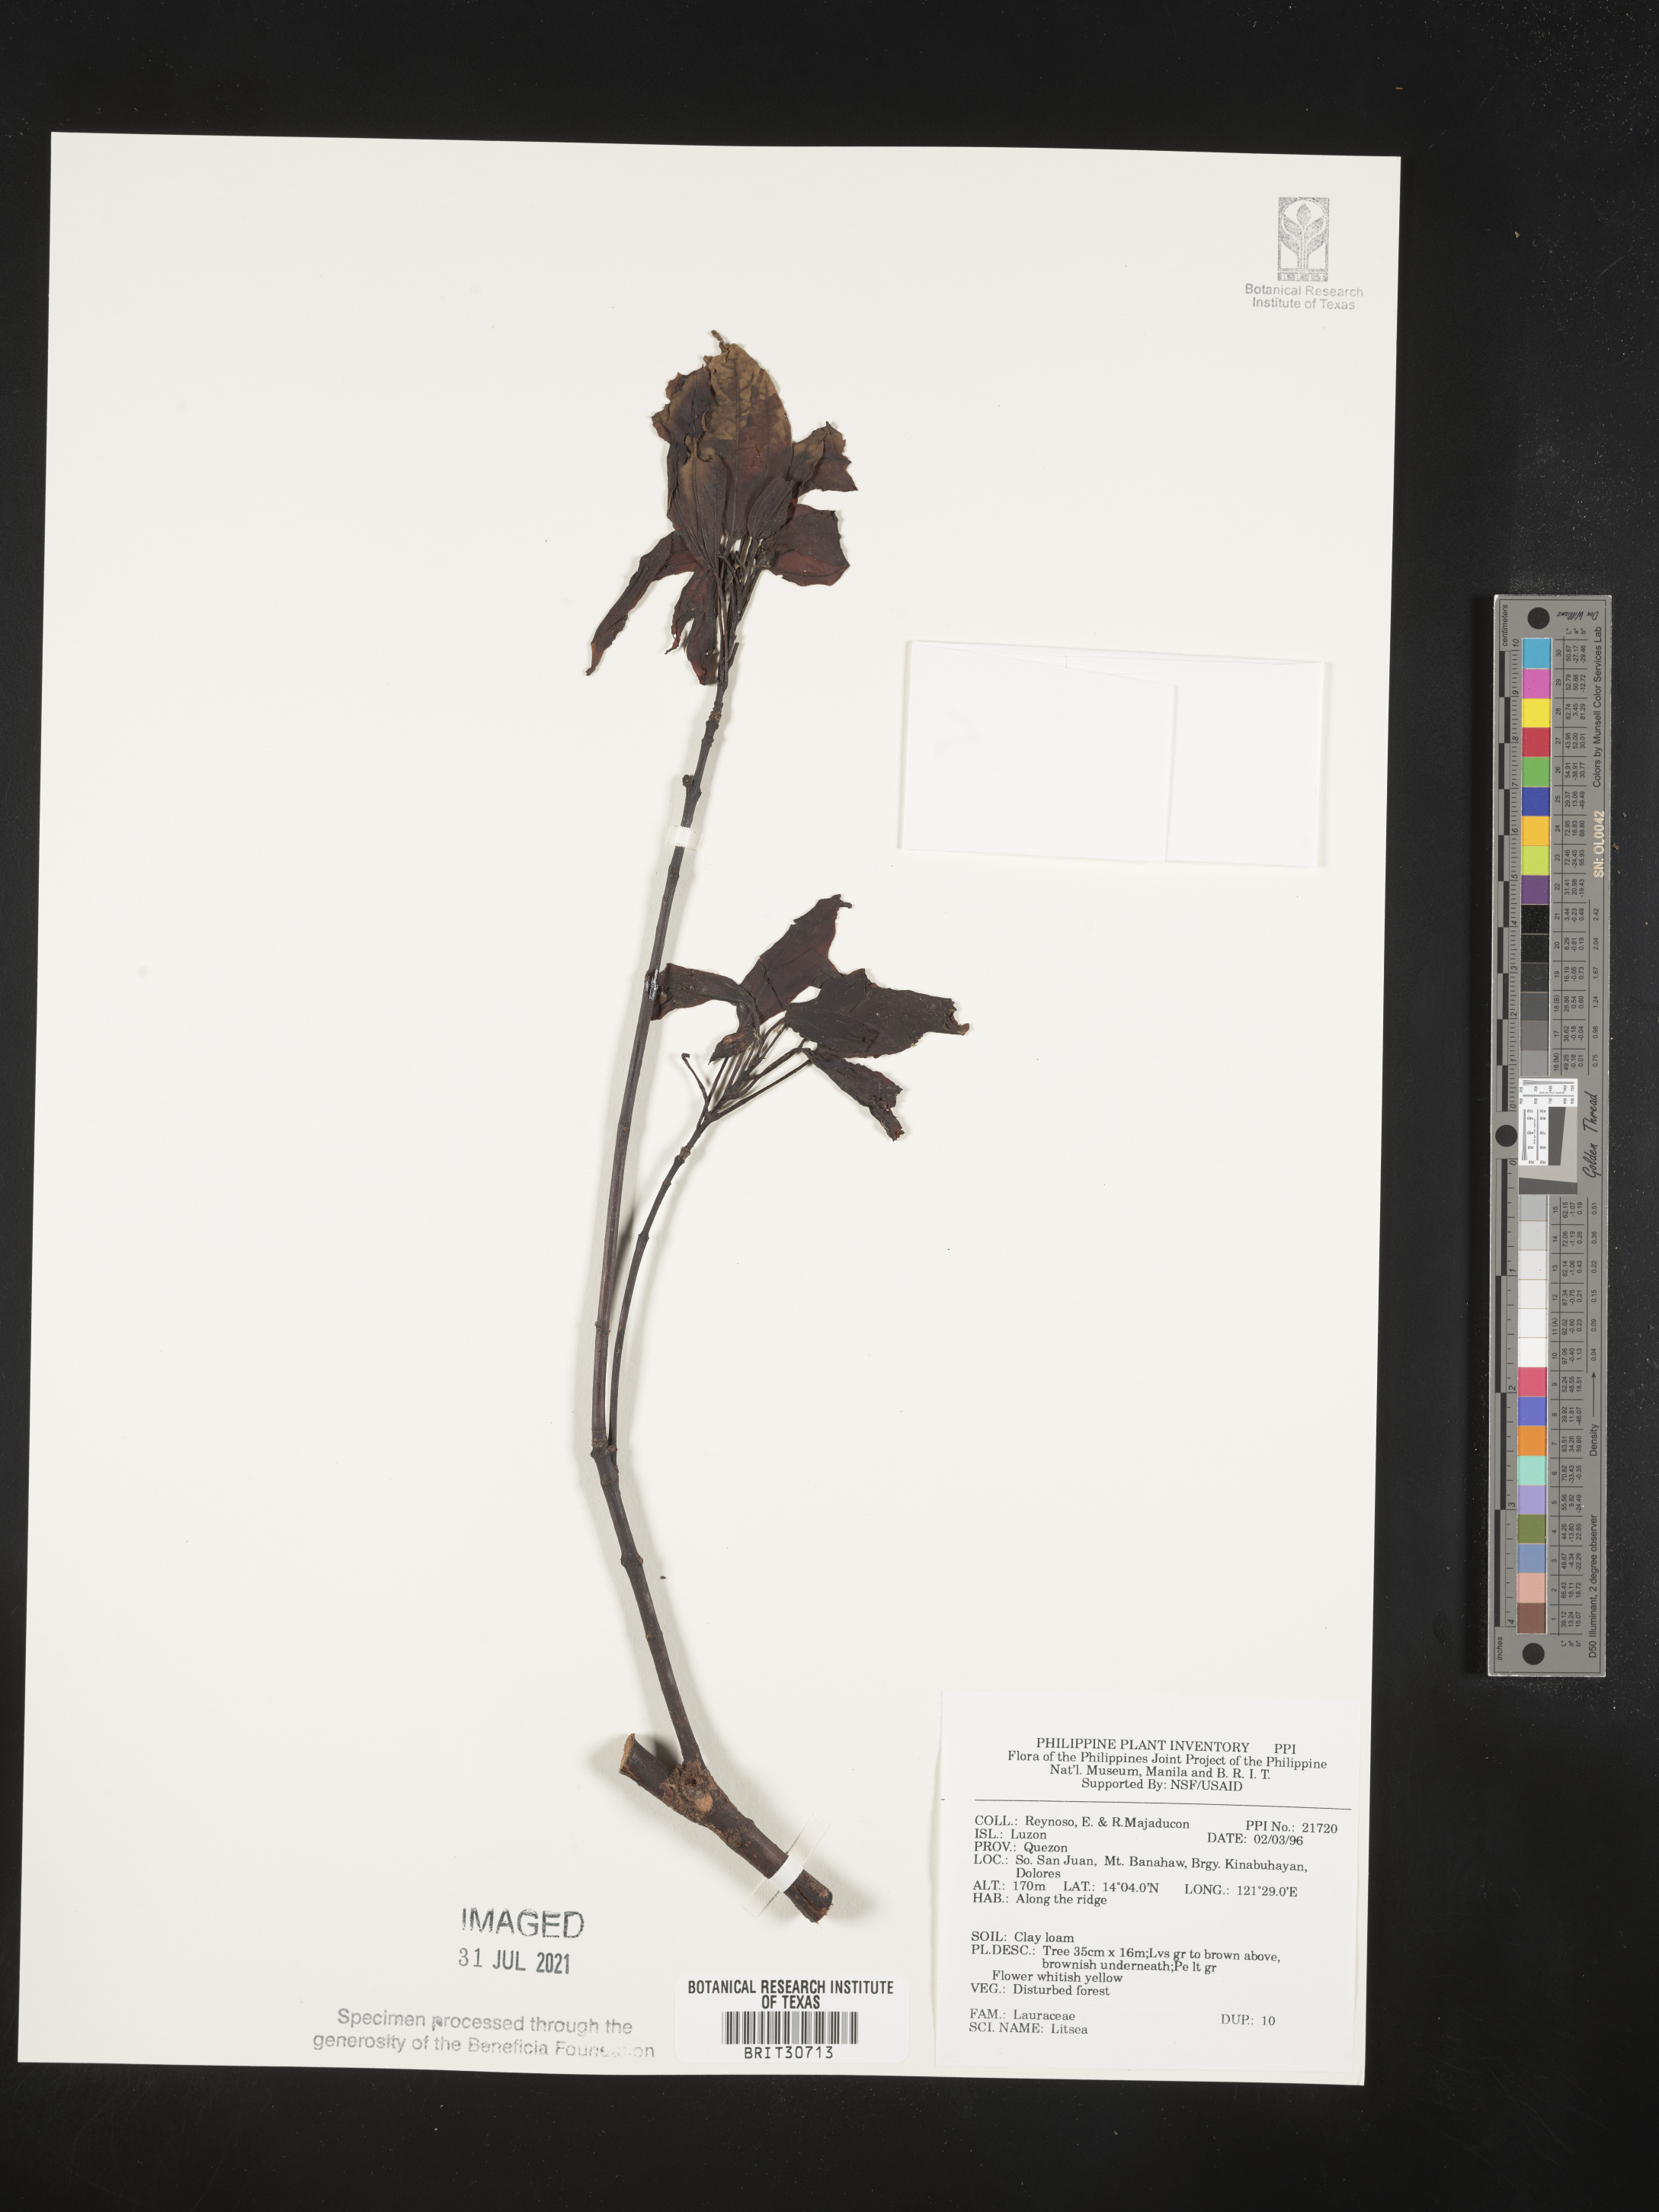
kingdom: Plantae
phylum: Tracheophyta
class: Magnoliopsida
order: Laurales
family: Lauraceae
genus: Litsea
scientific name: Litsea
